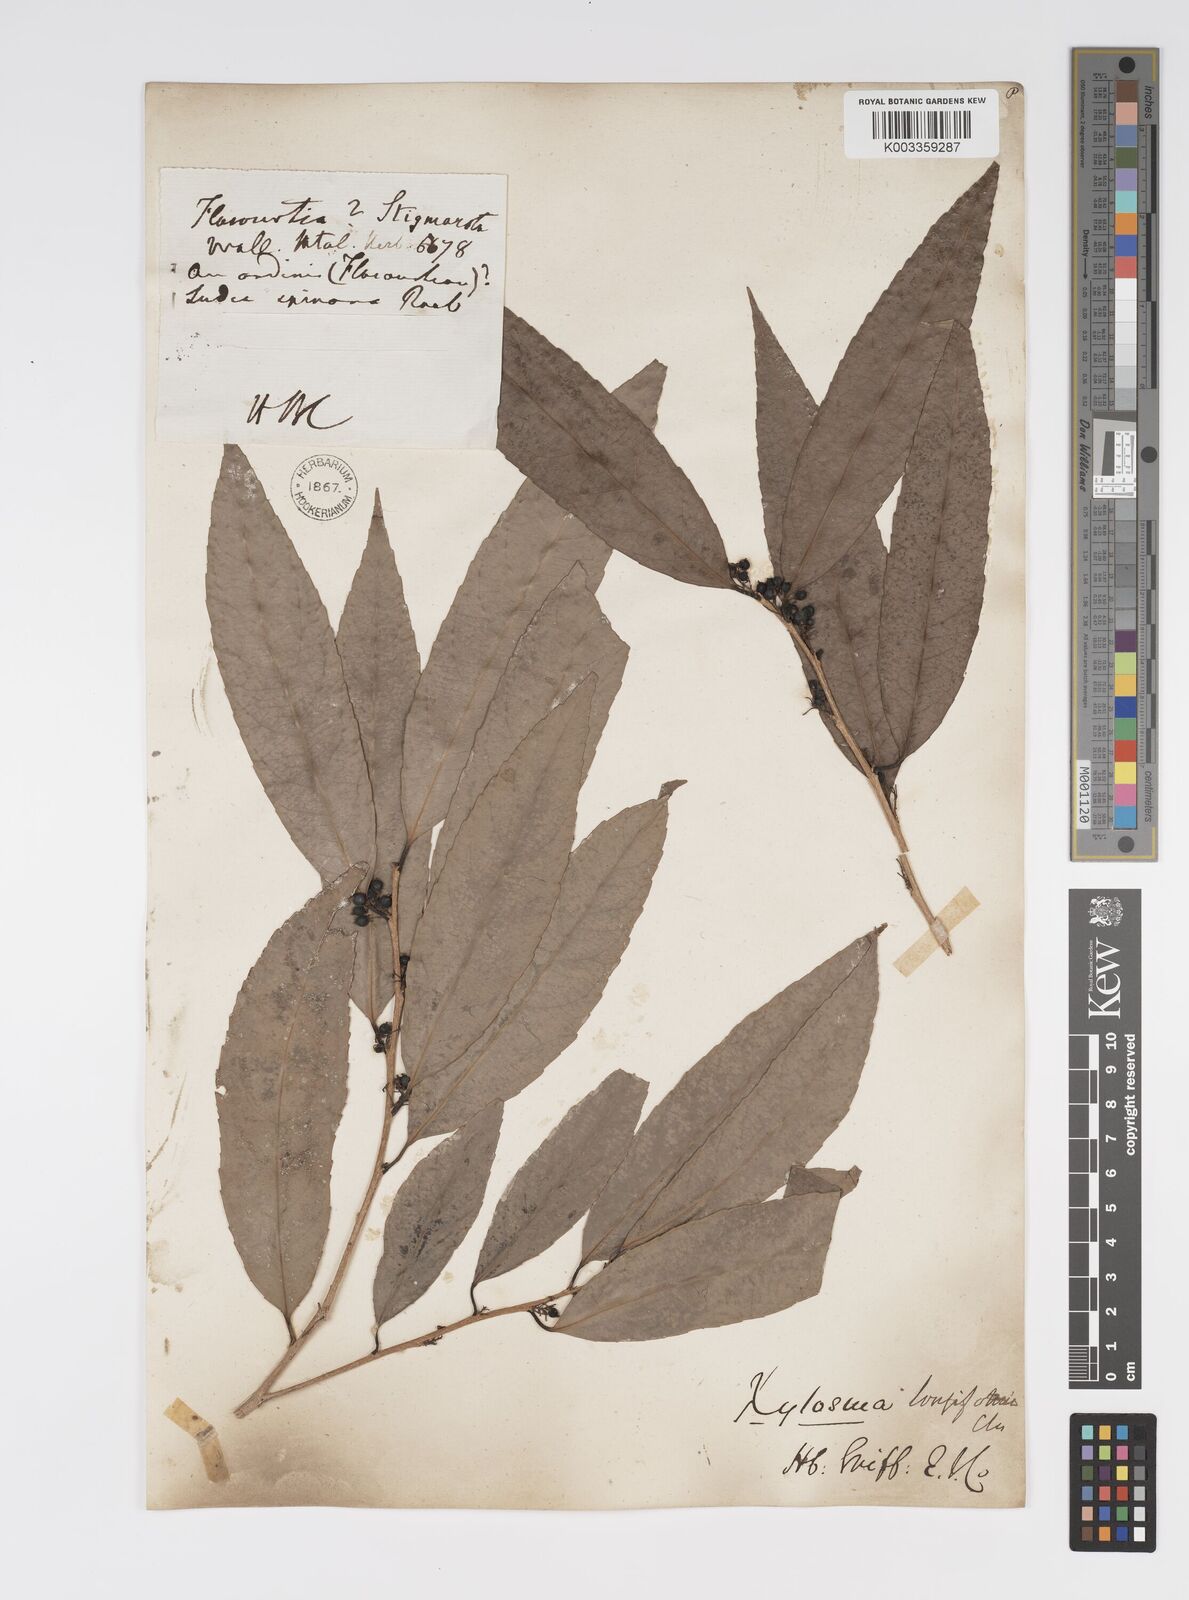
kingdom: Plantae
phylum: Tracheophyta
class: Magnoliopsida
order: Malpighiales
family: Salicaceae
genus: Xylosma
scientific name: Xylosma longifolia
